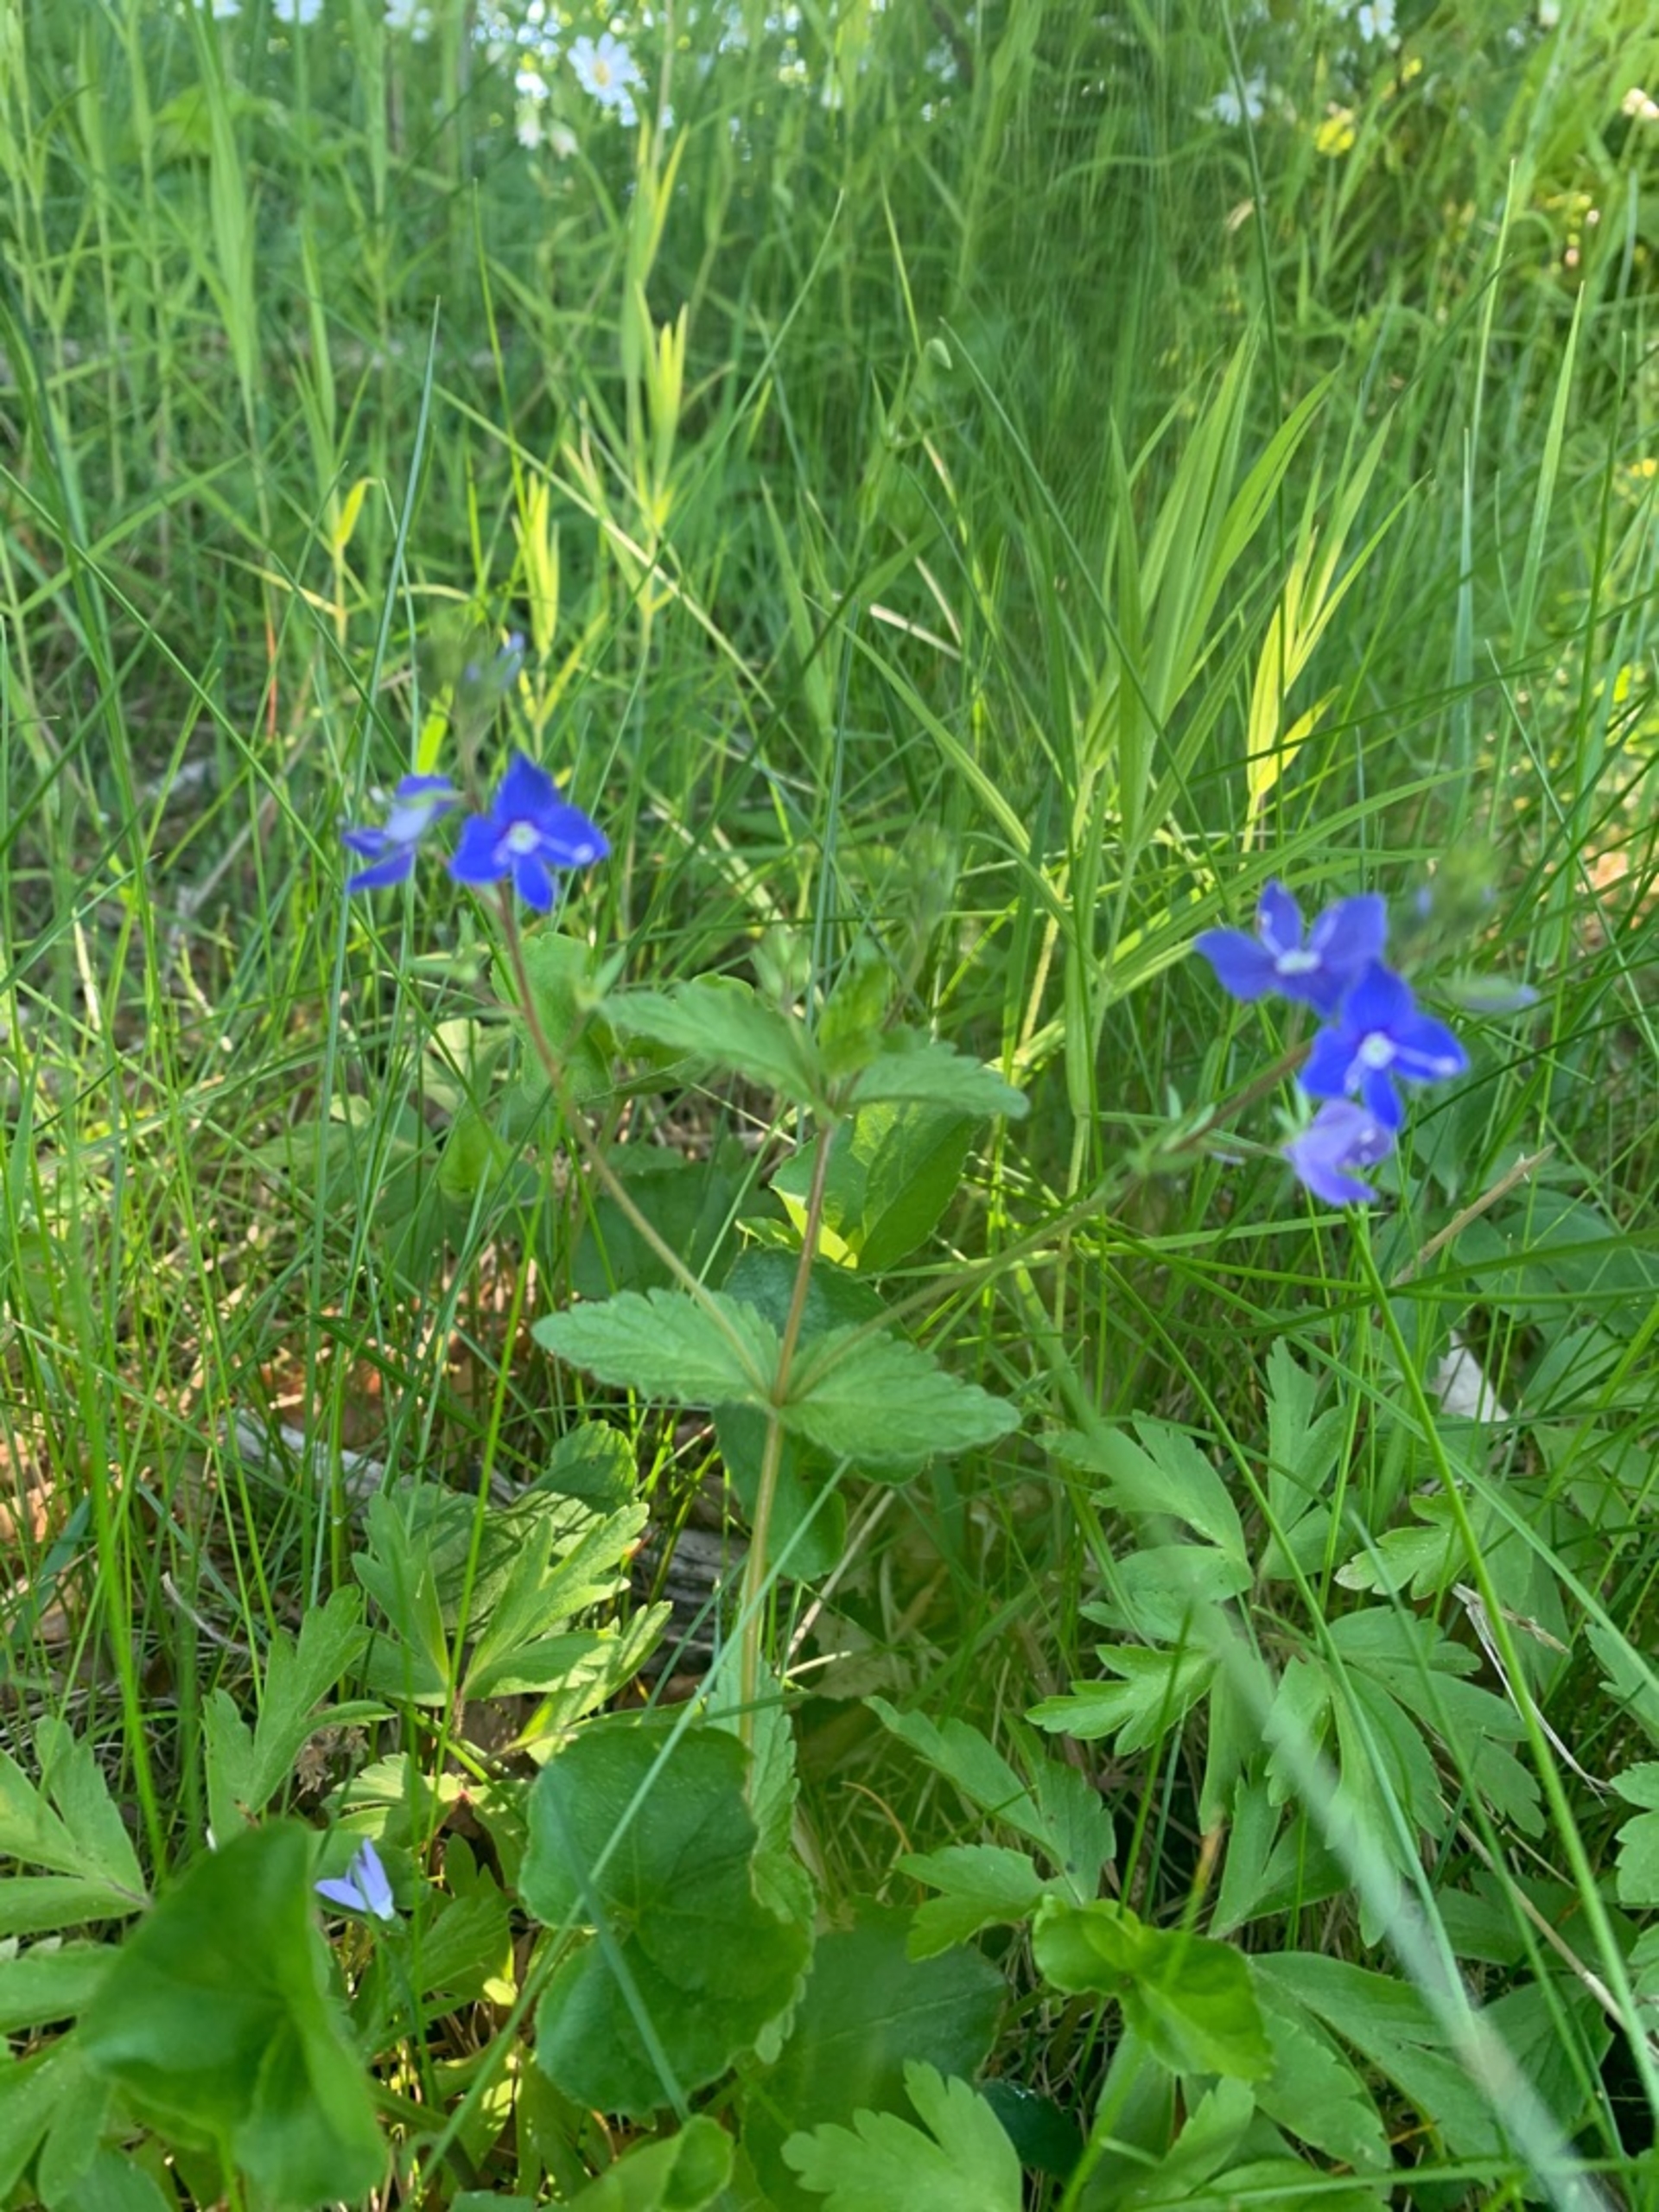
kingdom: Plantae
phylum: Tracheophyta
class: Magnoliopsida
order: Lamiales
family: Plantaginaceae
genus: Veronica
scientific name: Veronica chamaedrys
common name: Tveskægget ærenpris
